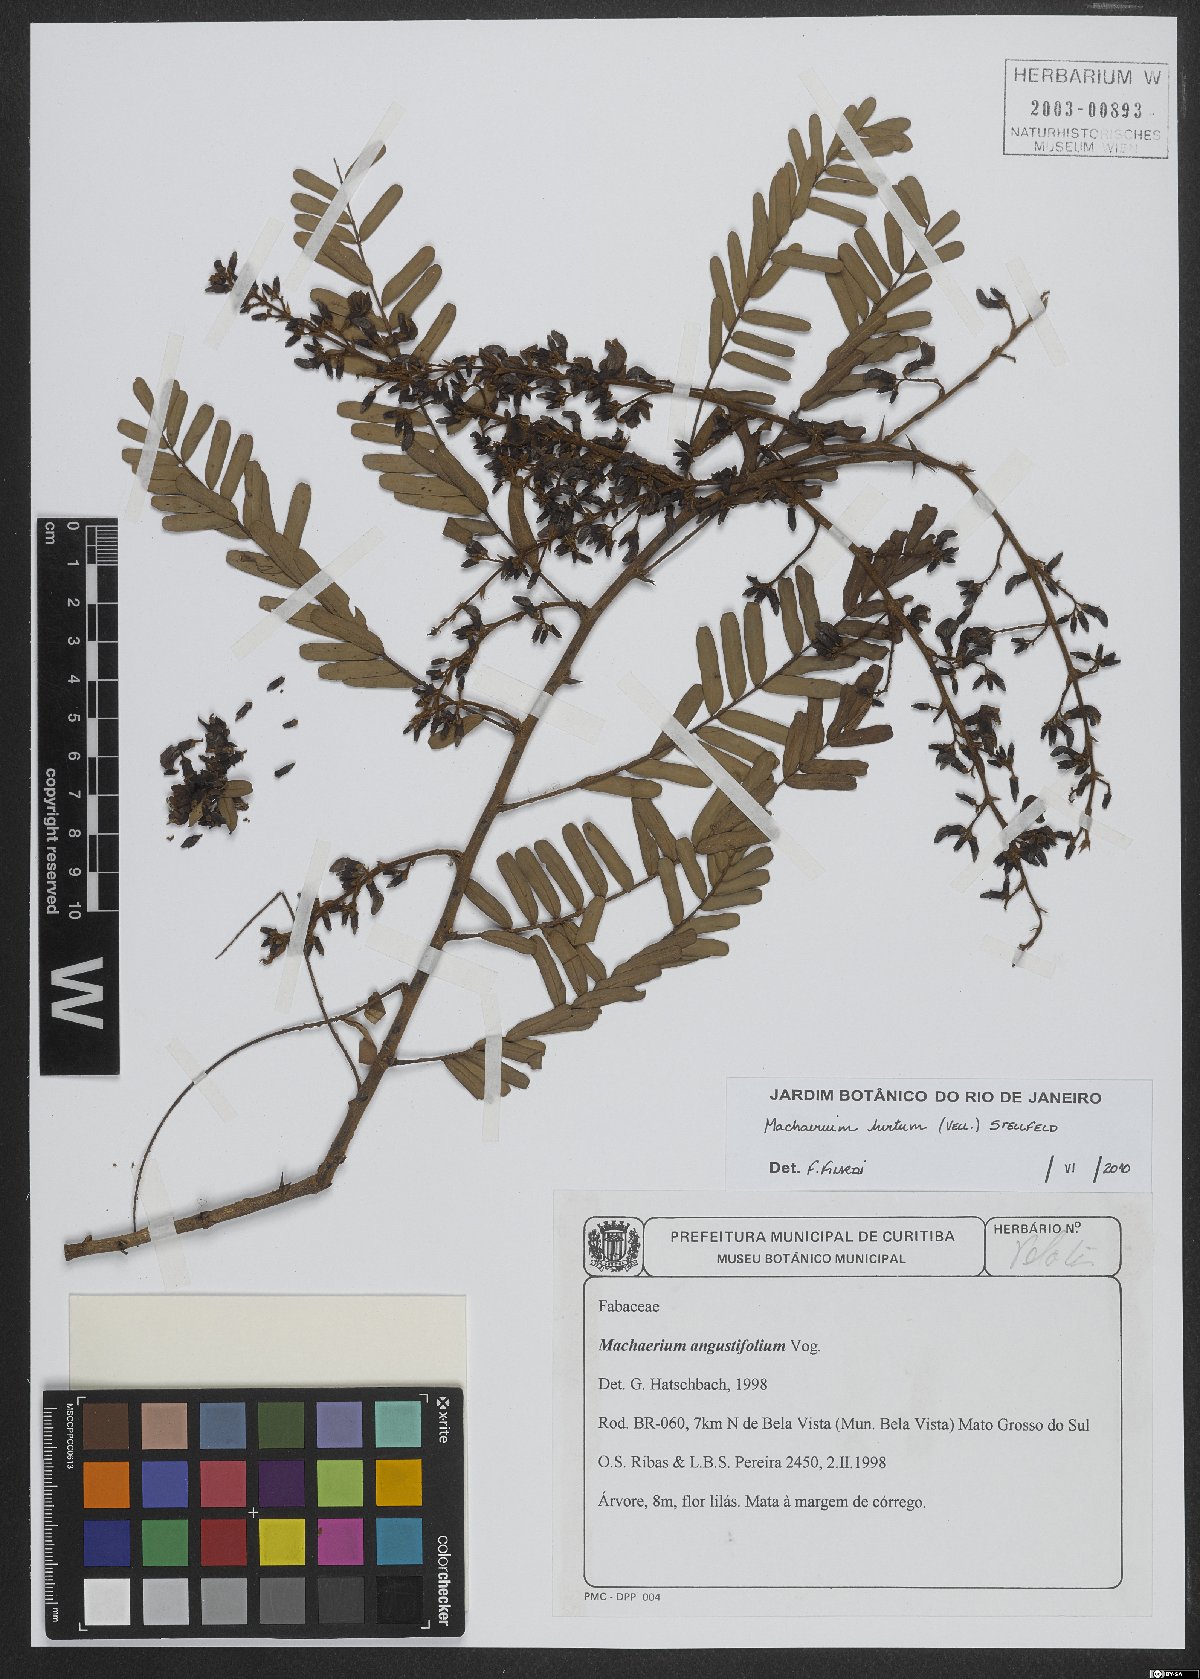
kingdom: Plantae
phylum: Tracheophyta
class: Magnoliopsida
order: Fabales
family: Fabaceae
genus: Machaerium
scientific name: Machaerium hirtum
